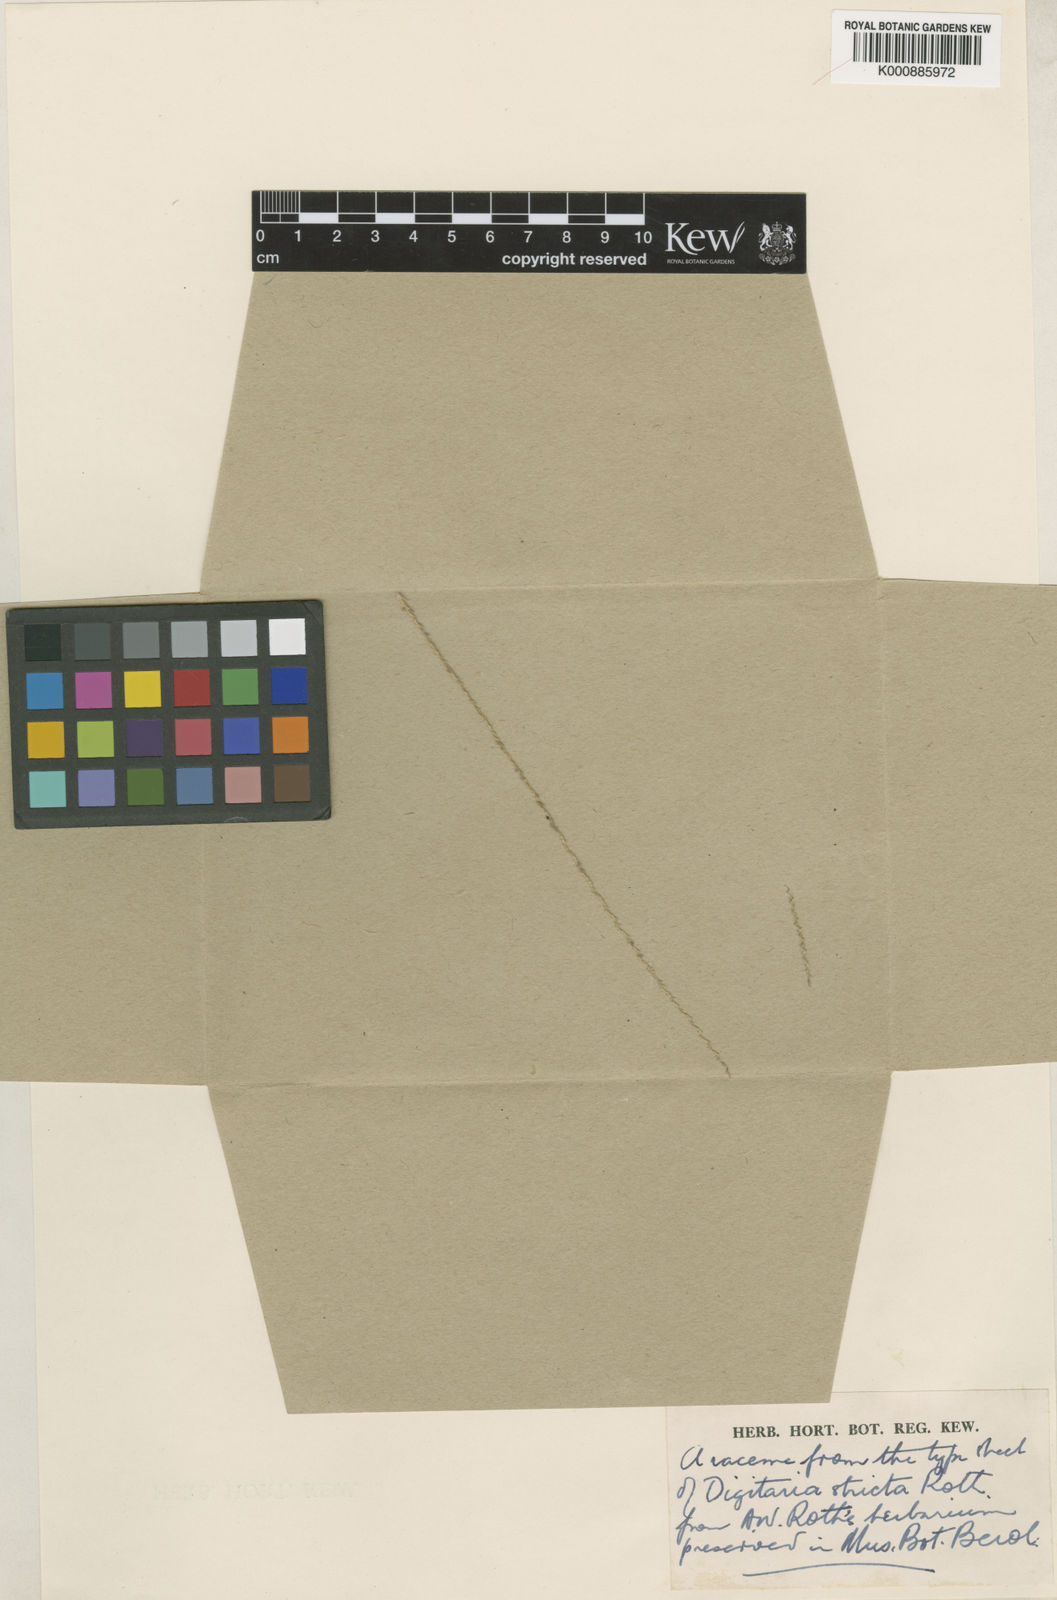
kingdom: Plantae
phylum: Tracheophyta
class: Liliopsida
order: Poales
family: Poaceae
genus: Digitaria
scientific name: Digitaria stricta
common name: Crabgrass
